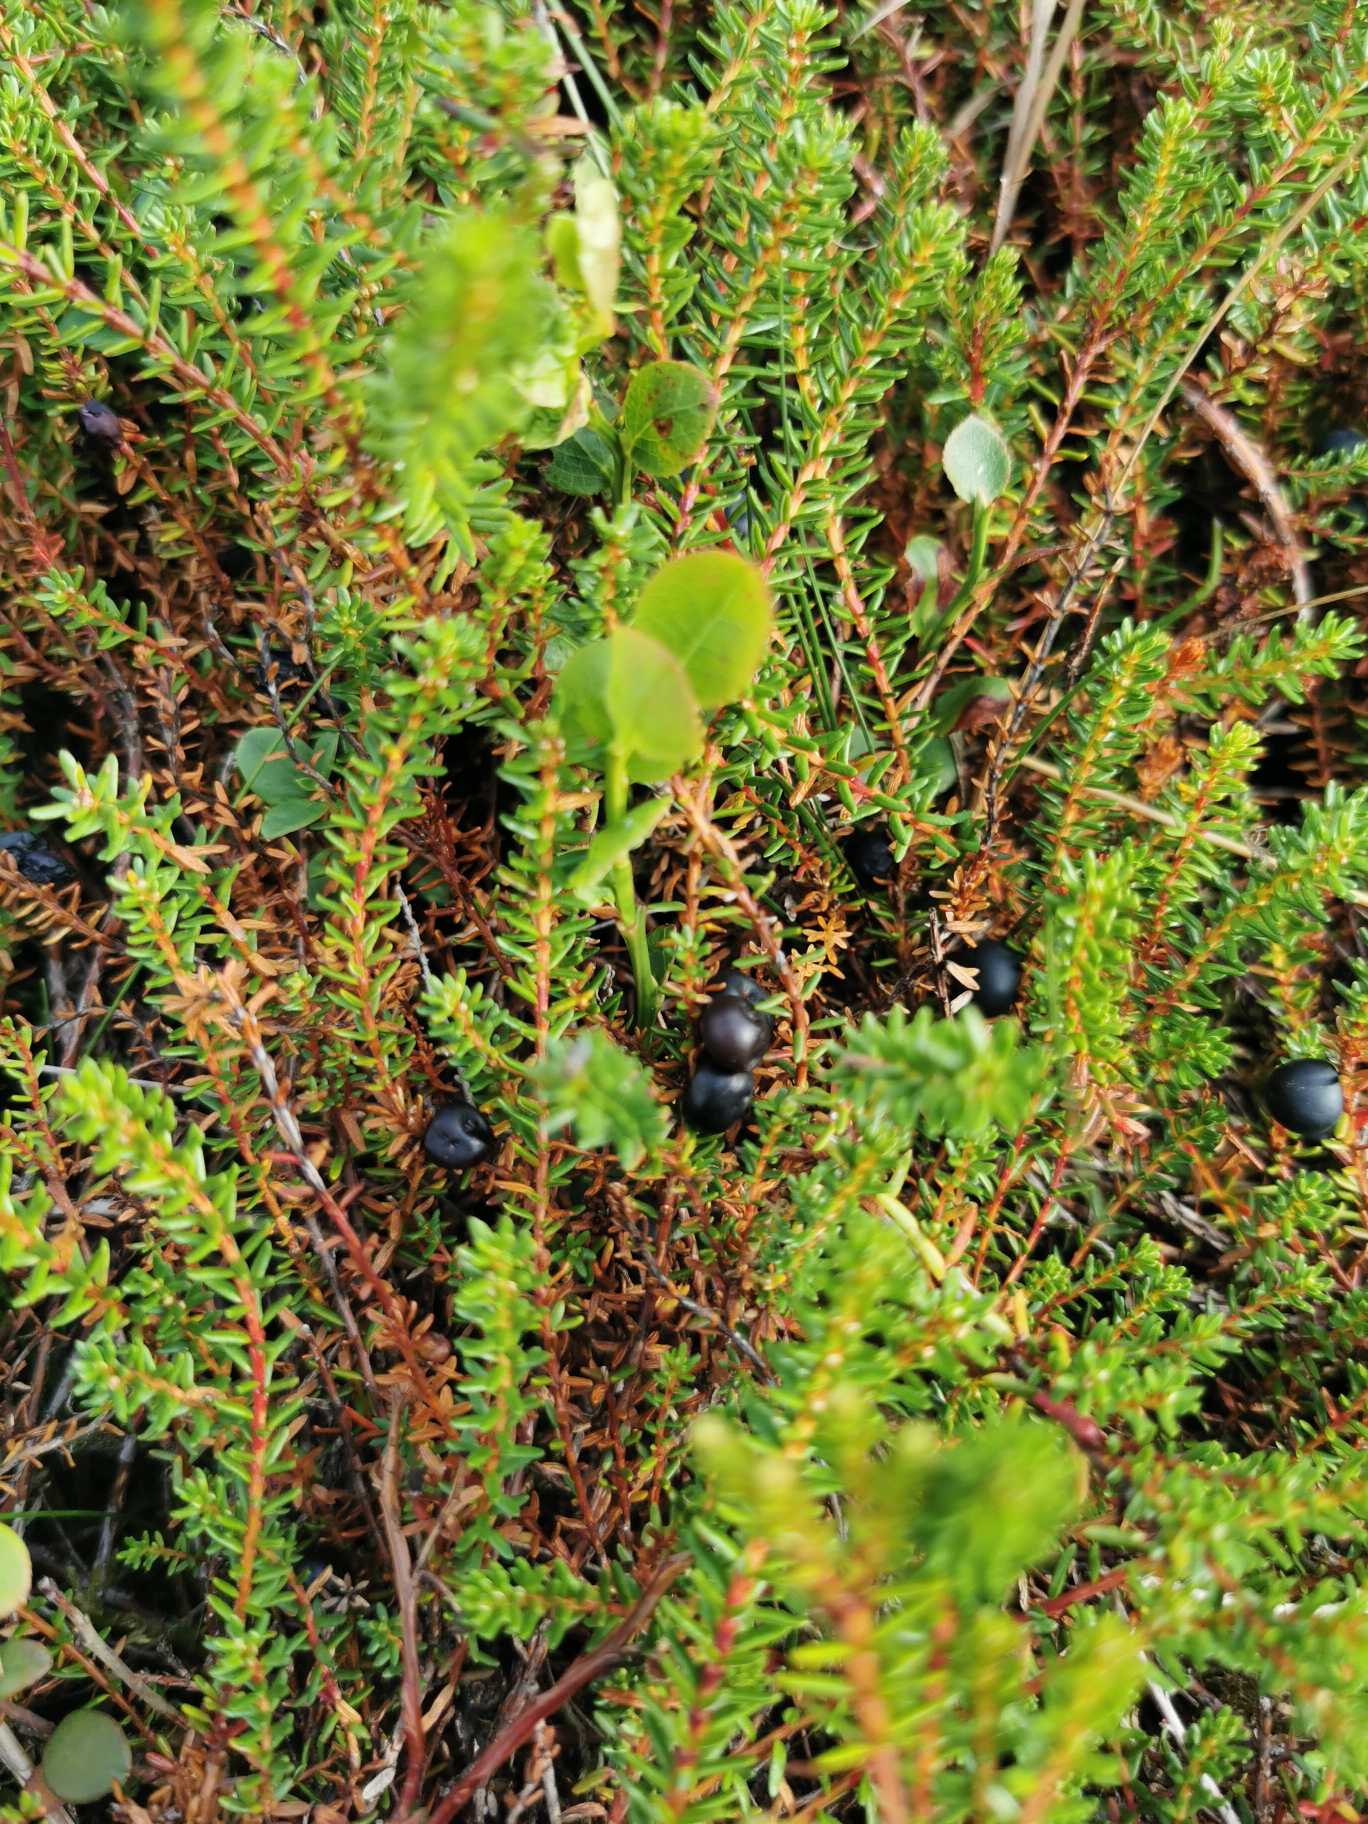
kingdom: Plantae
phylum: Tracheophyta
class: Magnoliopsida
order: Ericales
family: Ericaceae
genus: Empetrum
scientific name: Empetrum nigrum
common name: Revling
